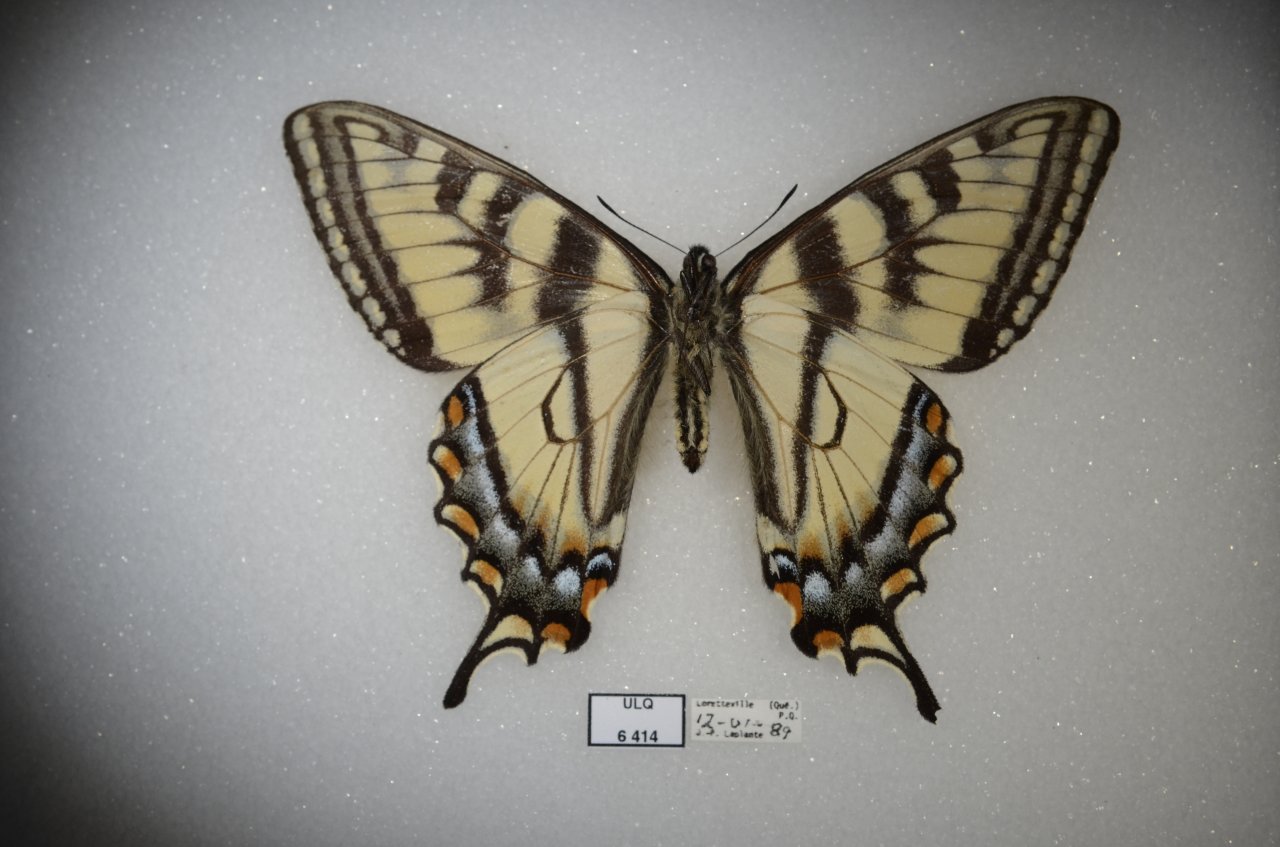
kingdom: Animalia
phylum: Arthropoda
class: Insecta
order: Lepidoptera
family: Papilionidae
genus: Pterourus
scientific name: Pterourus canadensis
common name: Canadian Tiger Swallowtail
